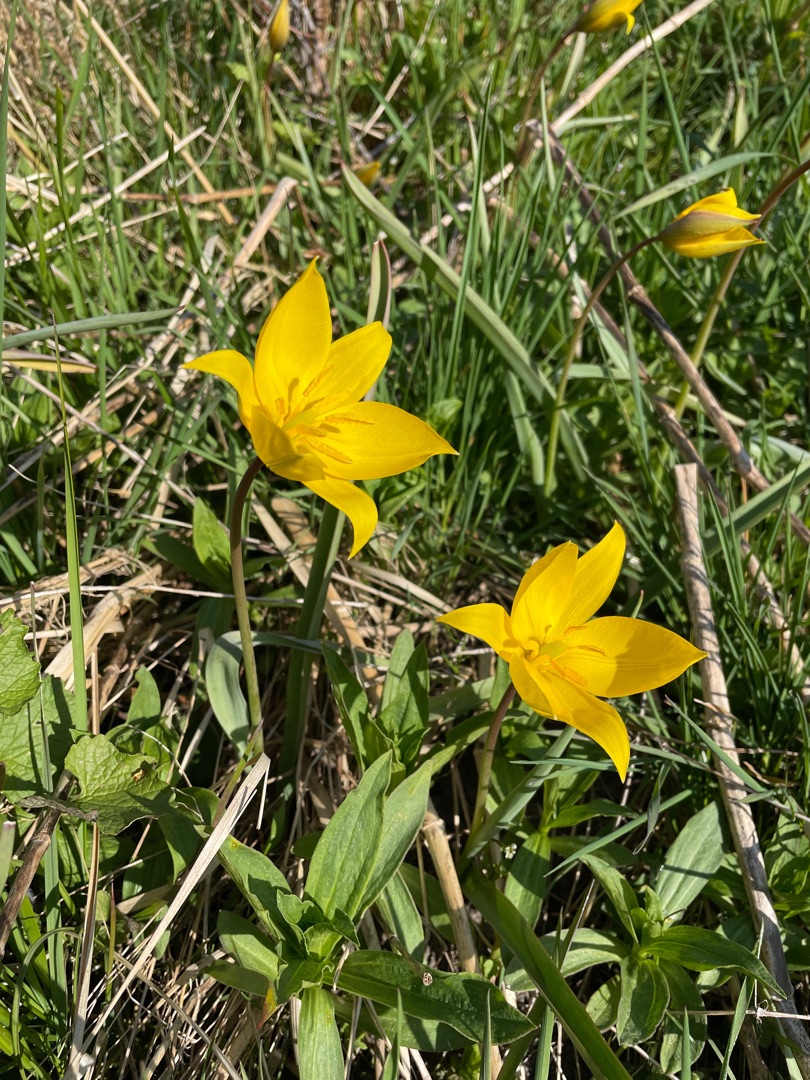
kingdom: Plantae
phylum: Tracheophyta
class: Liliopsida
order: Liliales
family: Liliaceae
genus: Tulipa
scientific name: Tulipa sylvestris
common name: Vild tulipan
